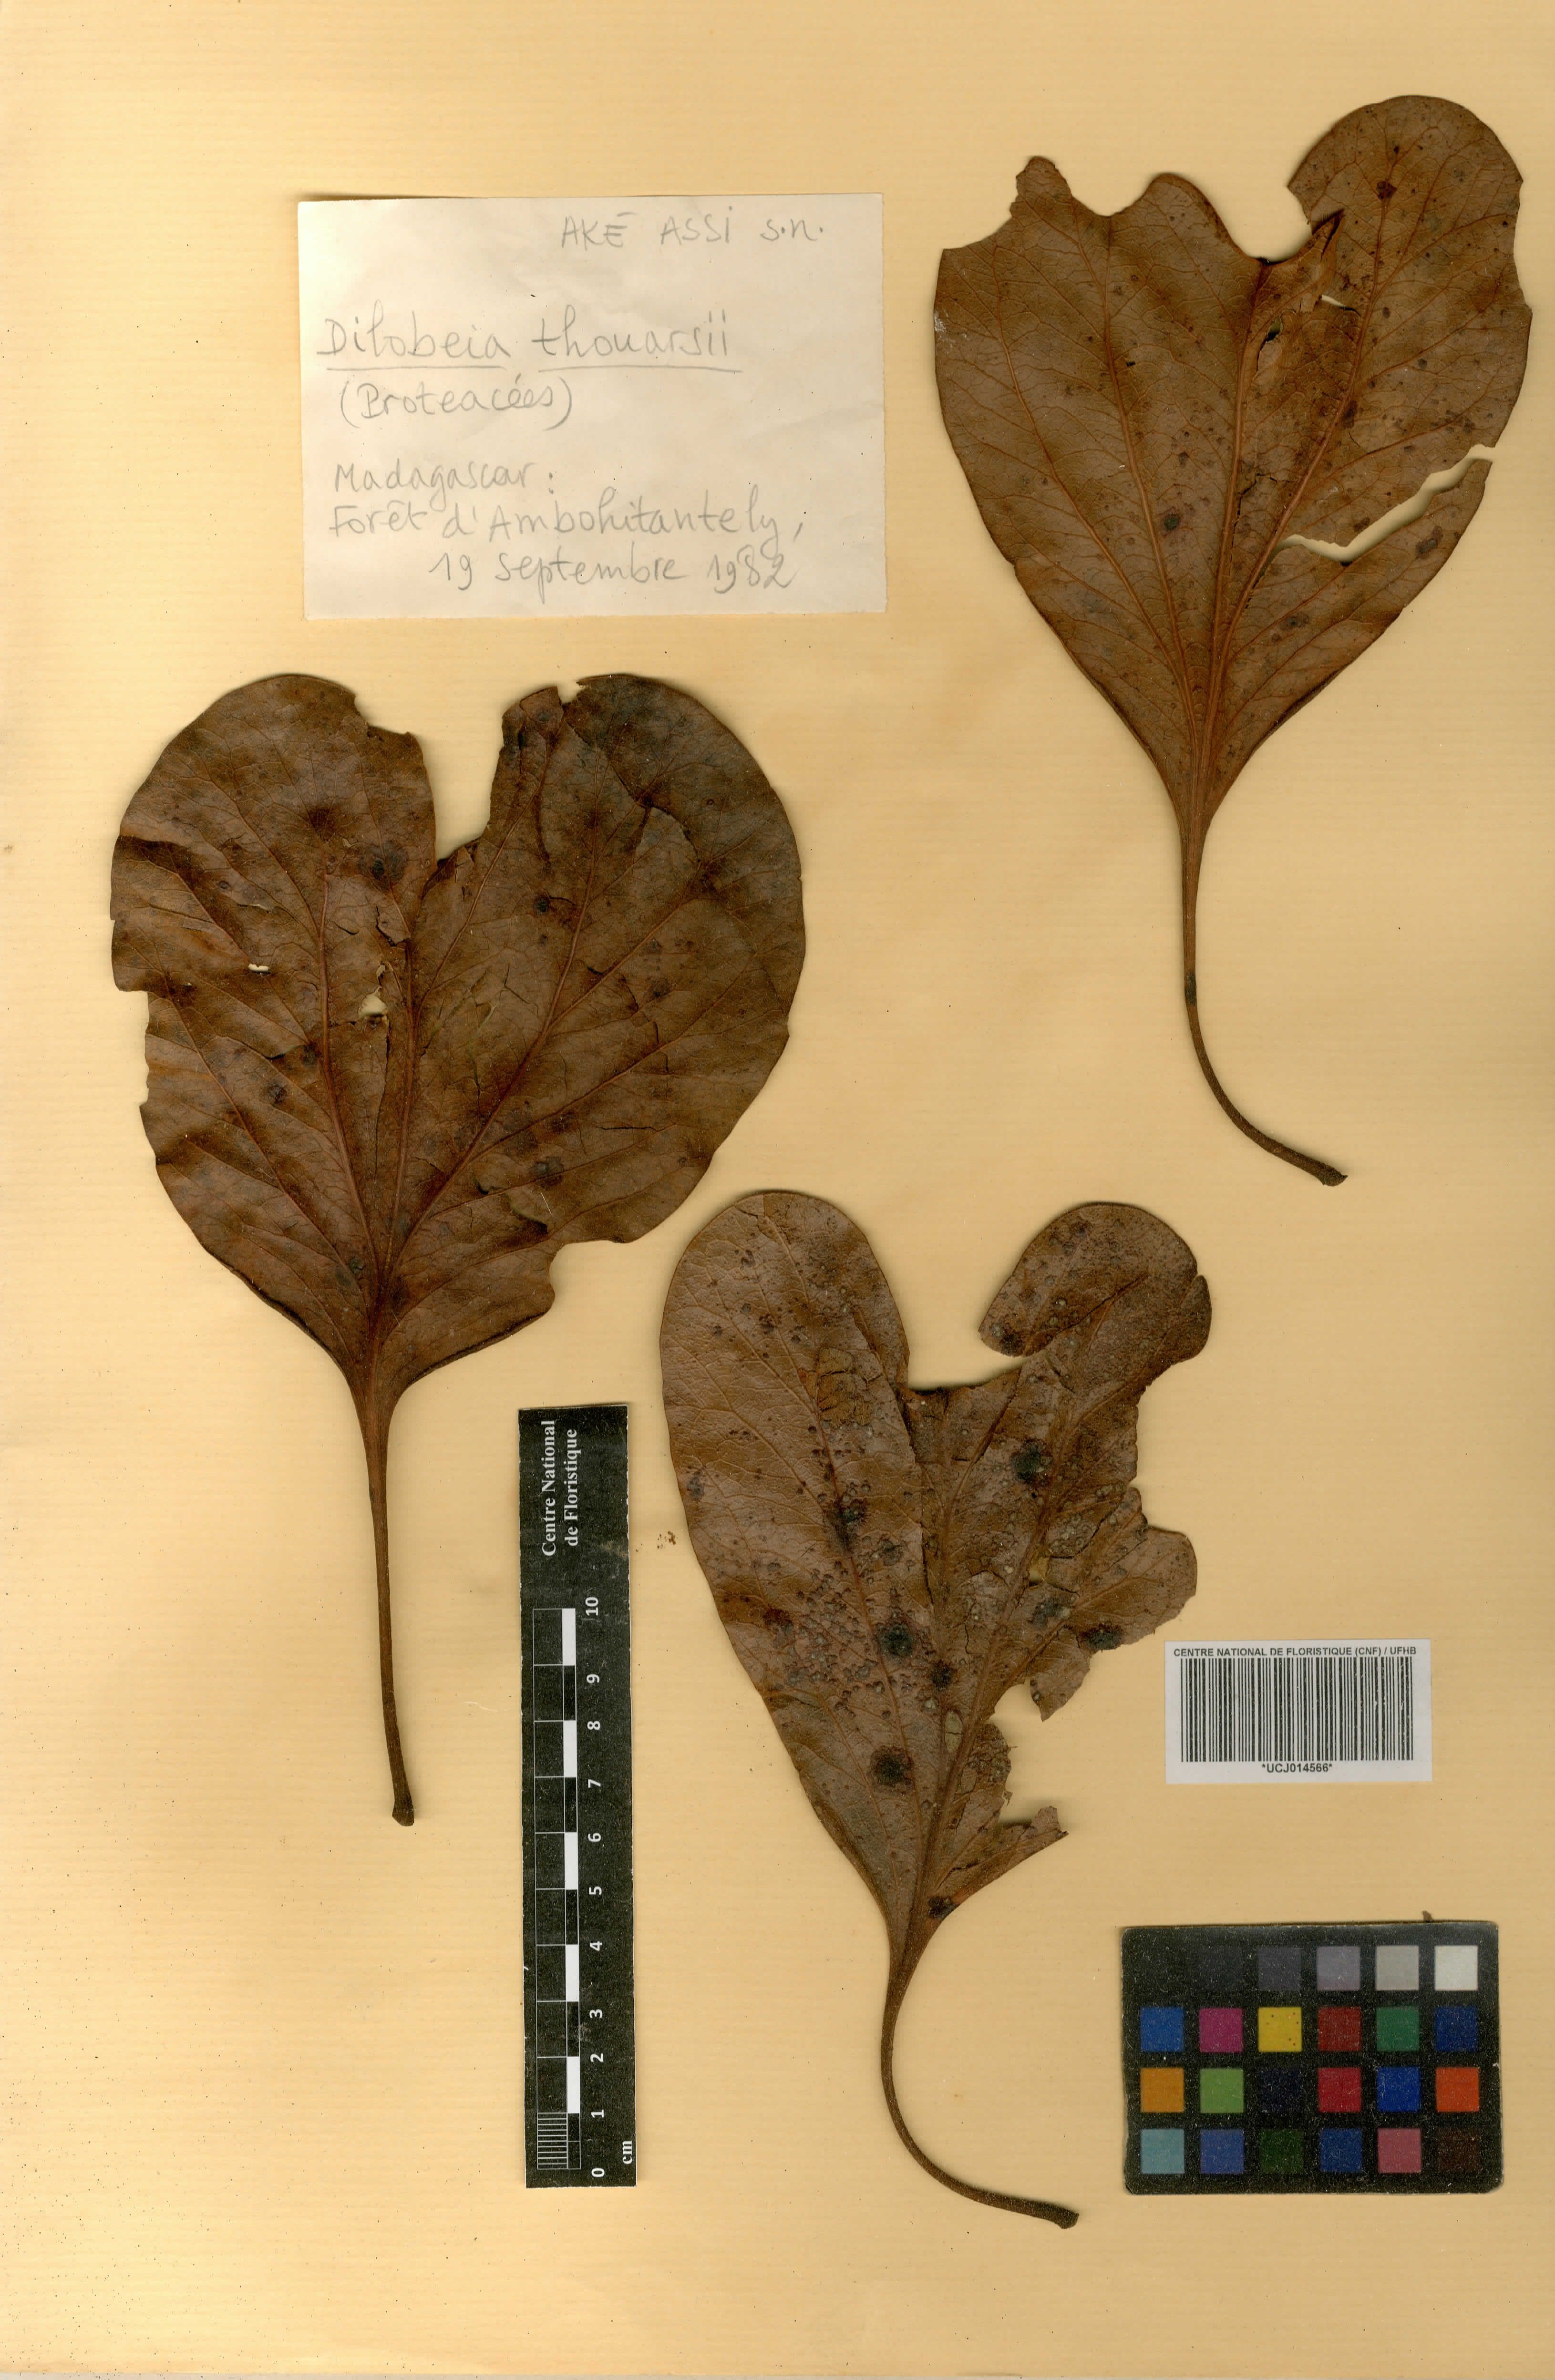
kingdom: Plantae
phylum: Tracheophyta
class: Magnoliopsida
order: Proteales
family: Proteaceae
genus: Dilobeia
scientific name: Dilobeia thouarsii
